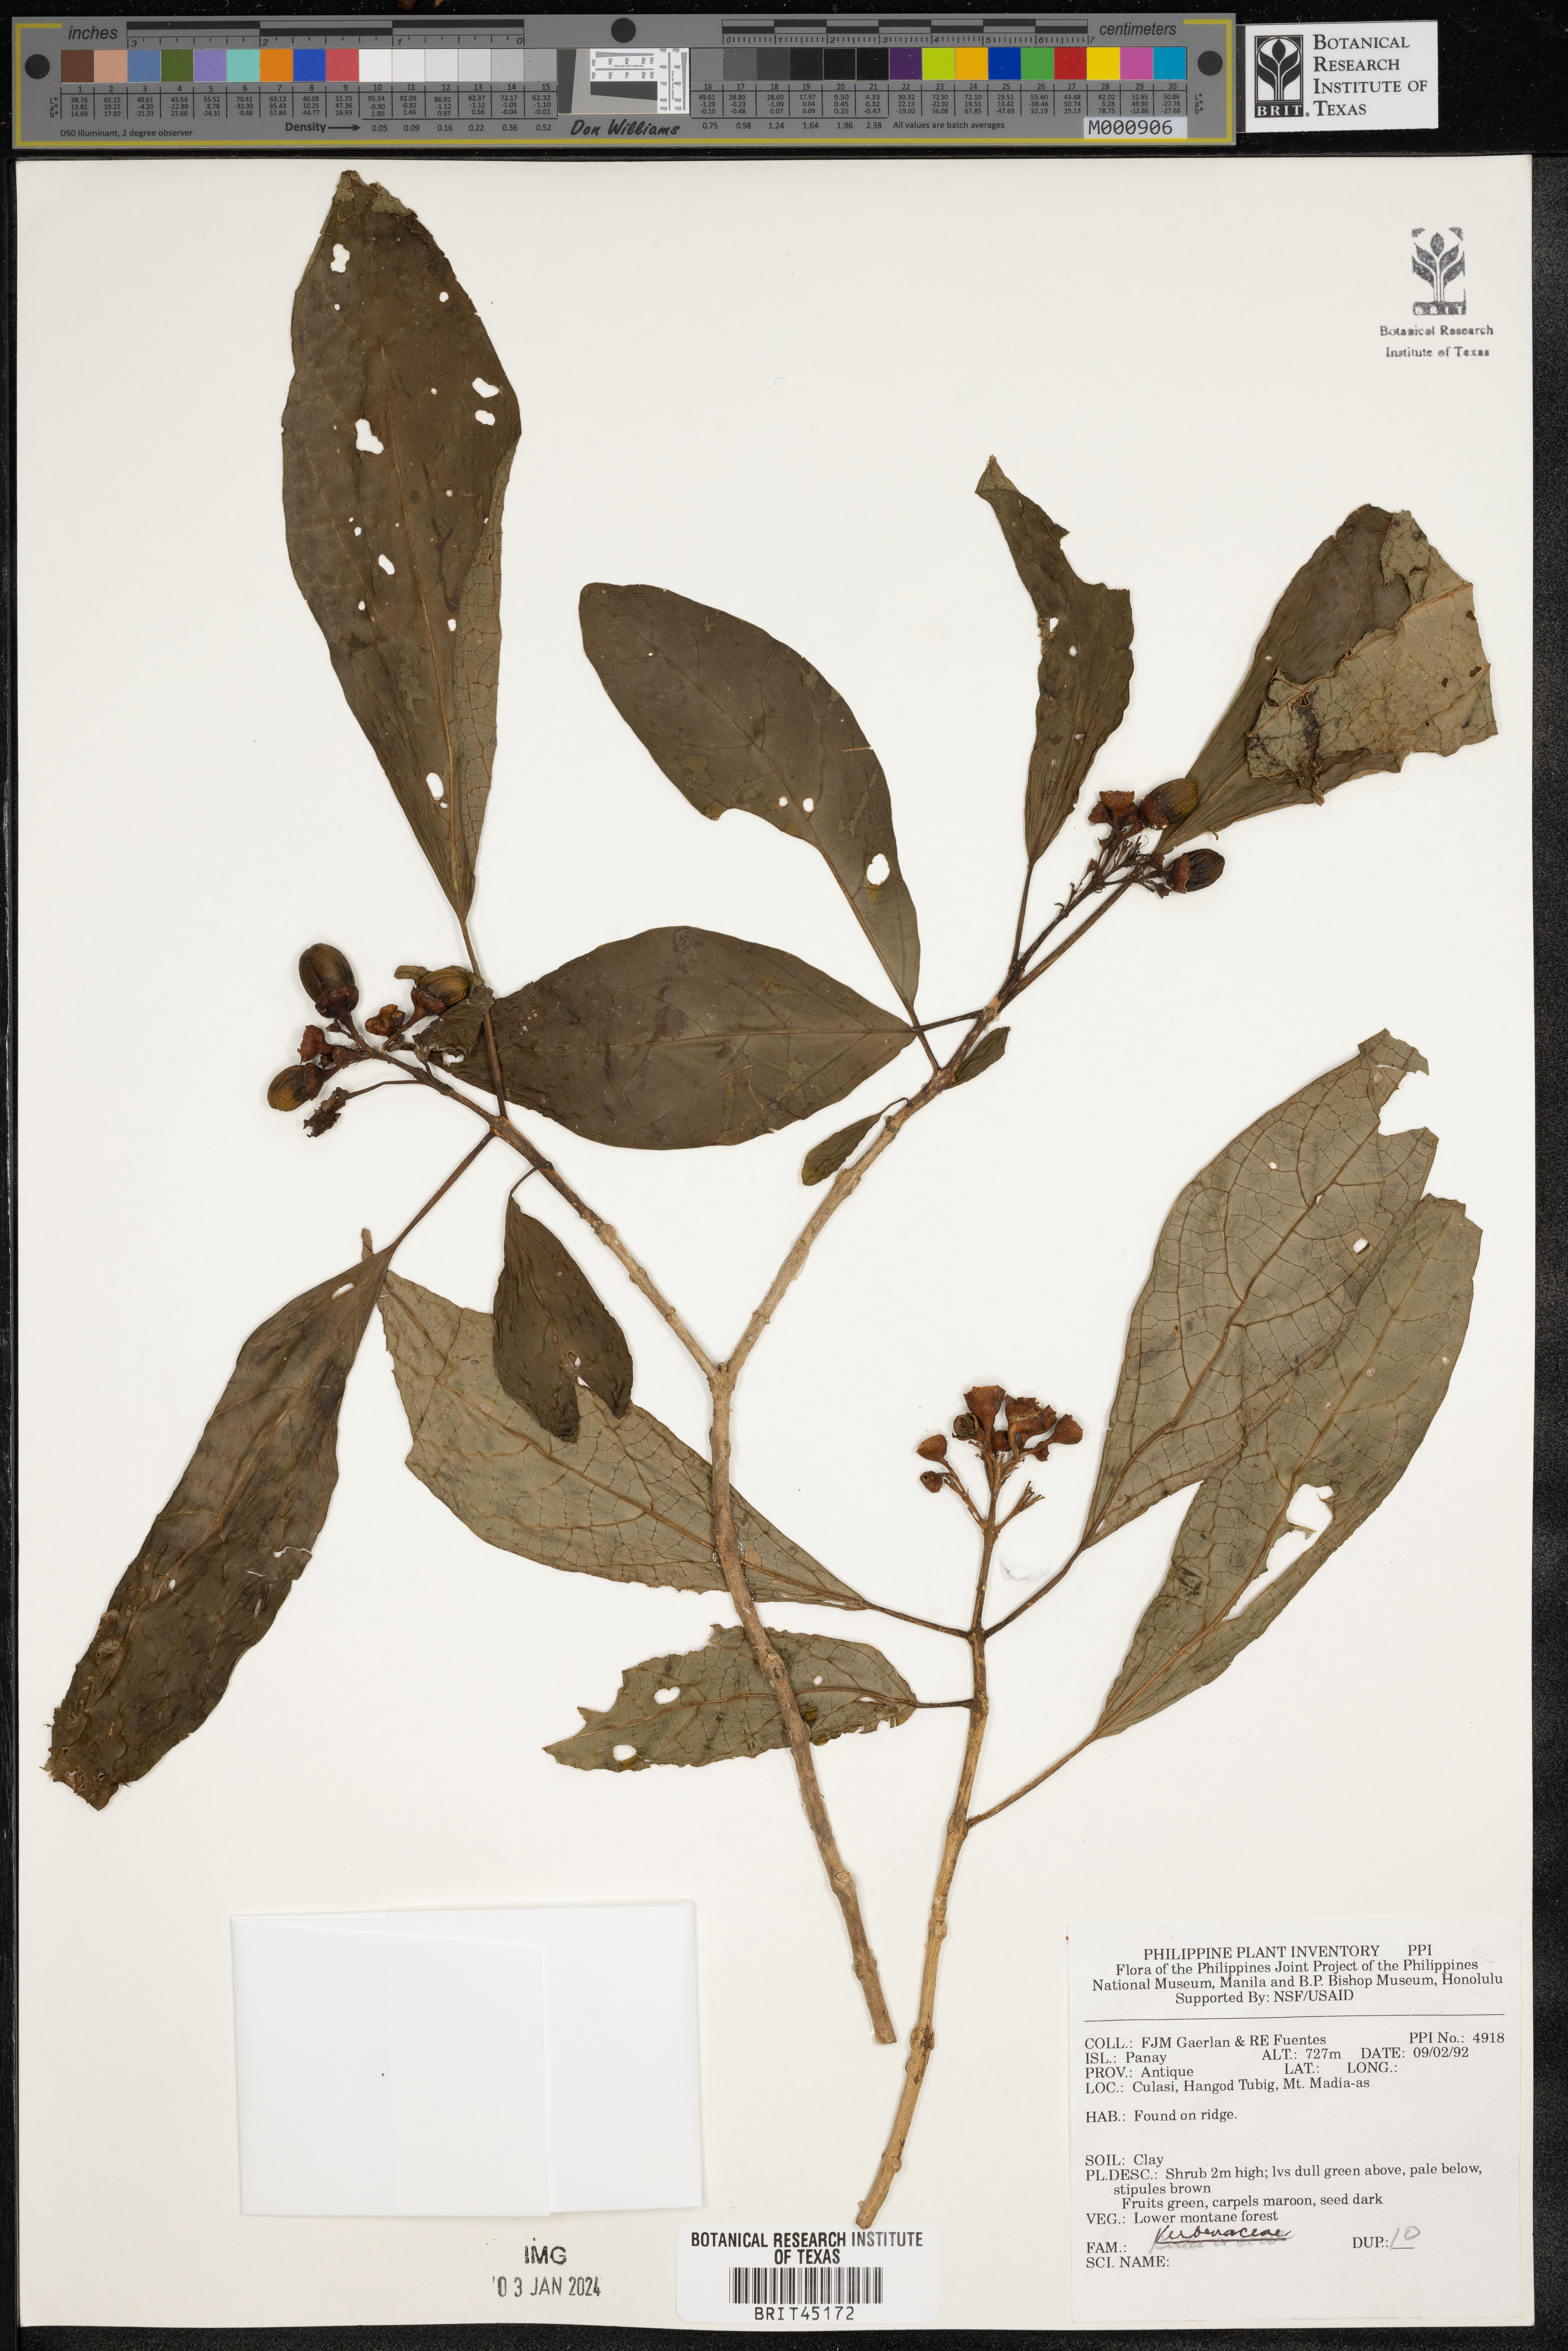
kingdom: Plantae
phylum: Tracheophyta
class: Magnoliopsida
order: Lamiales
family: Verbenaceae
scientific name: Verbenaceae
